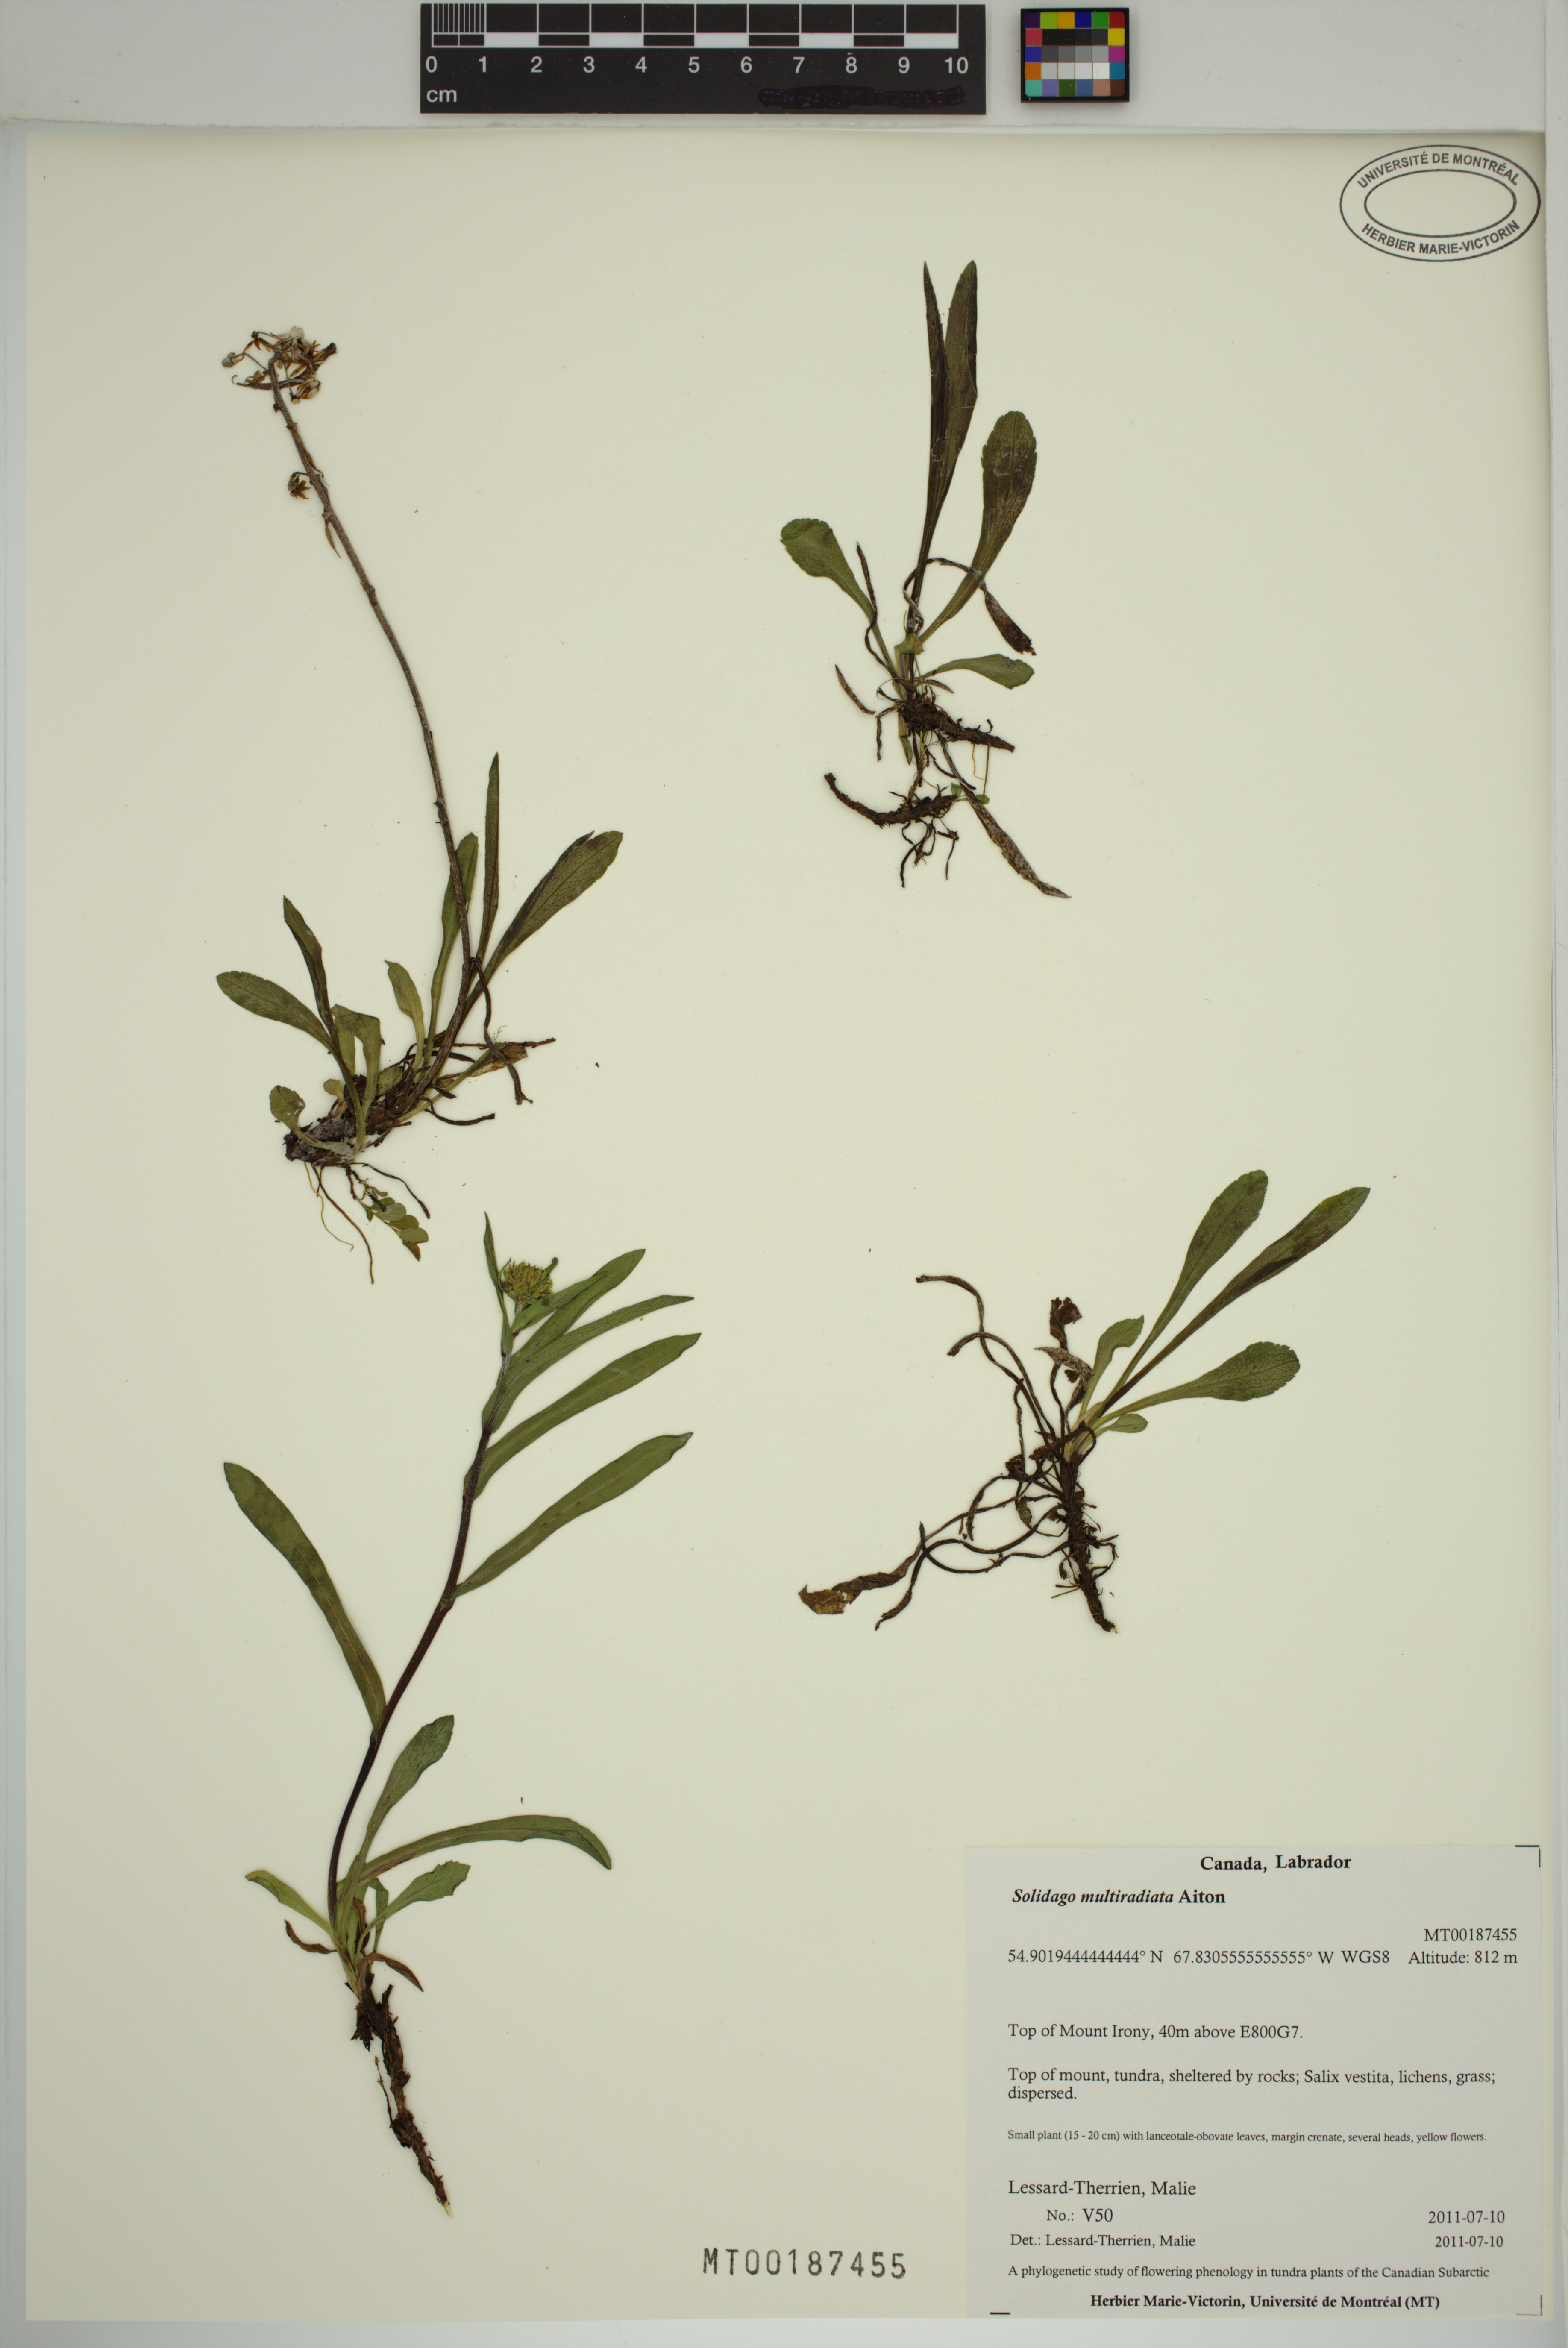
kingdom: Plantae
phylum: Tracheophyta
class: Magnoliopsida
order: Asterales
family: Asteraceae
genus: Solidago
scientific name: Solidago multiradiata
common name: Northern goldenrod
